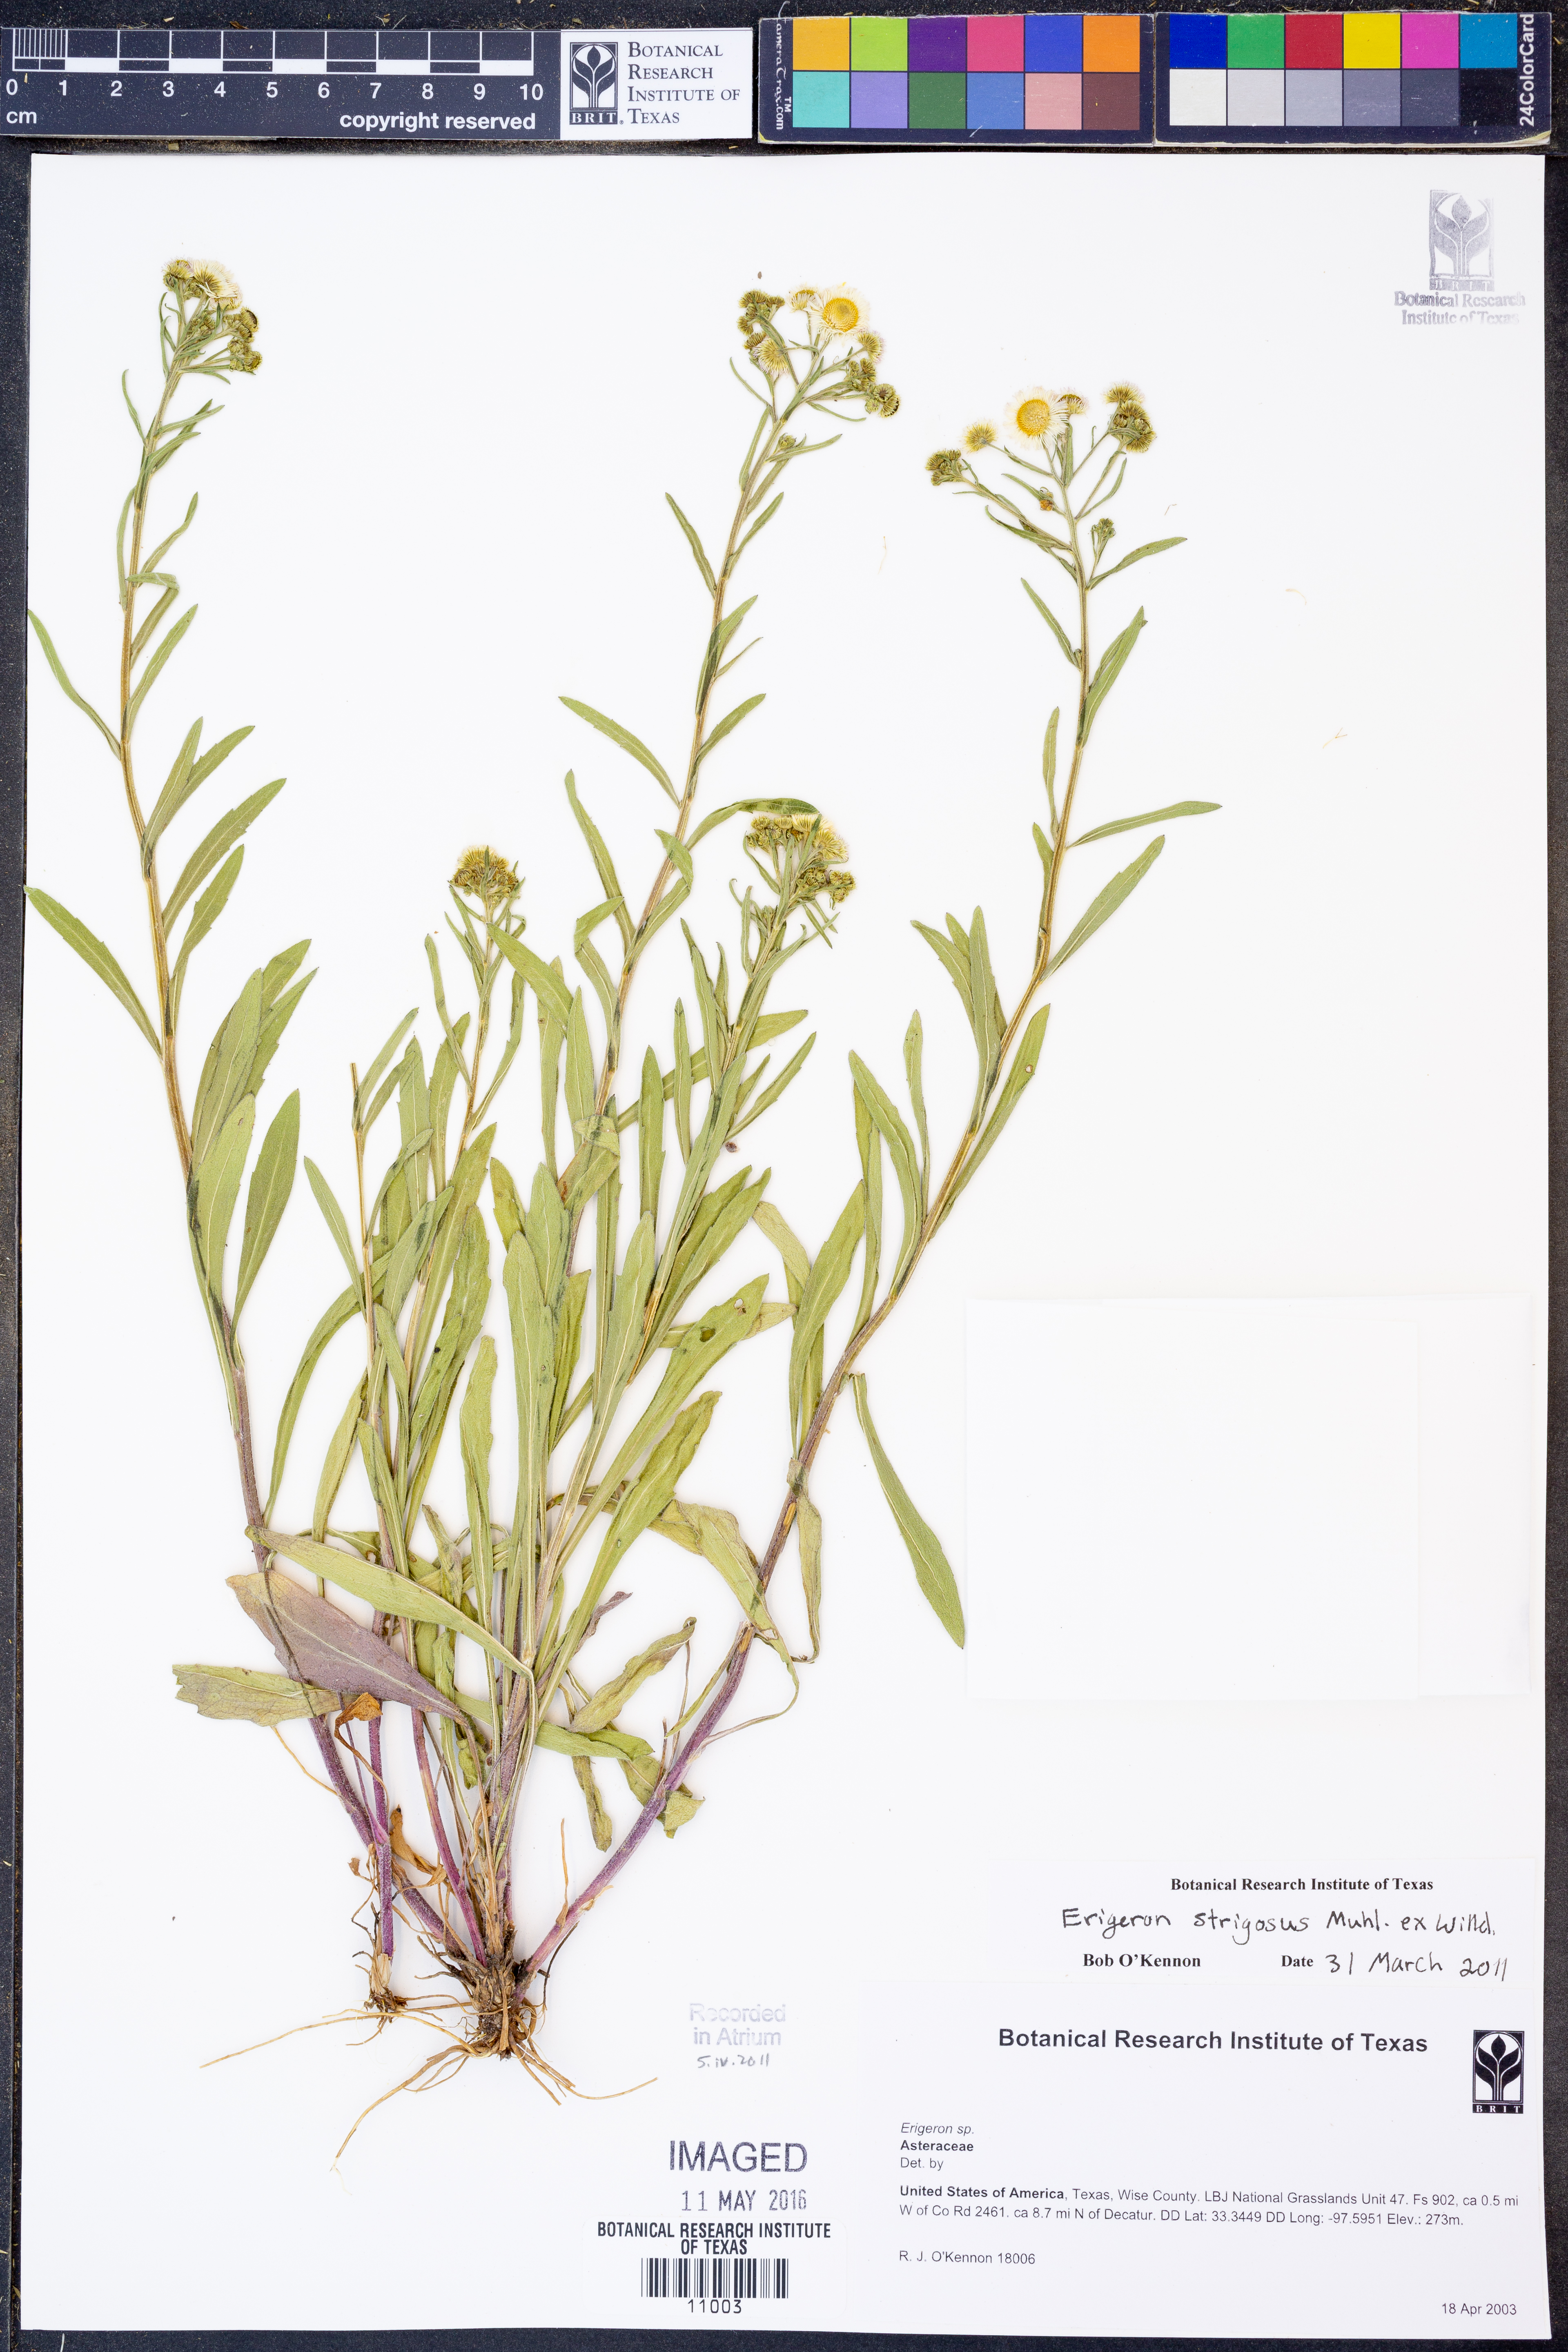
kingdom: Plantae
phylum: Tracheophyta
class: Magnoliopsida
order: Asterales
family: Asteraceae
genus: Erigeron
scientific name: Erigeron strigosus
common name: Common eastern fleabane
